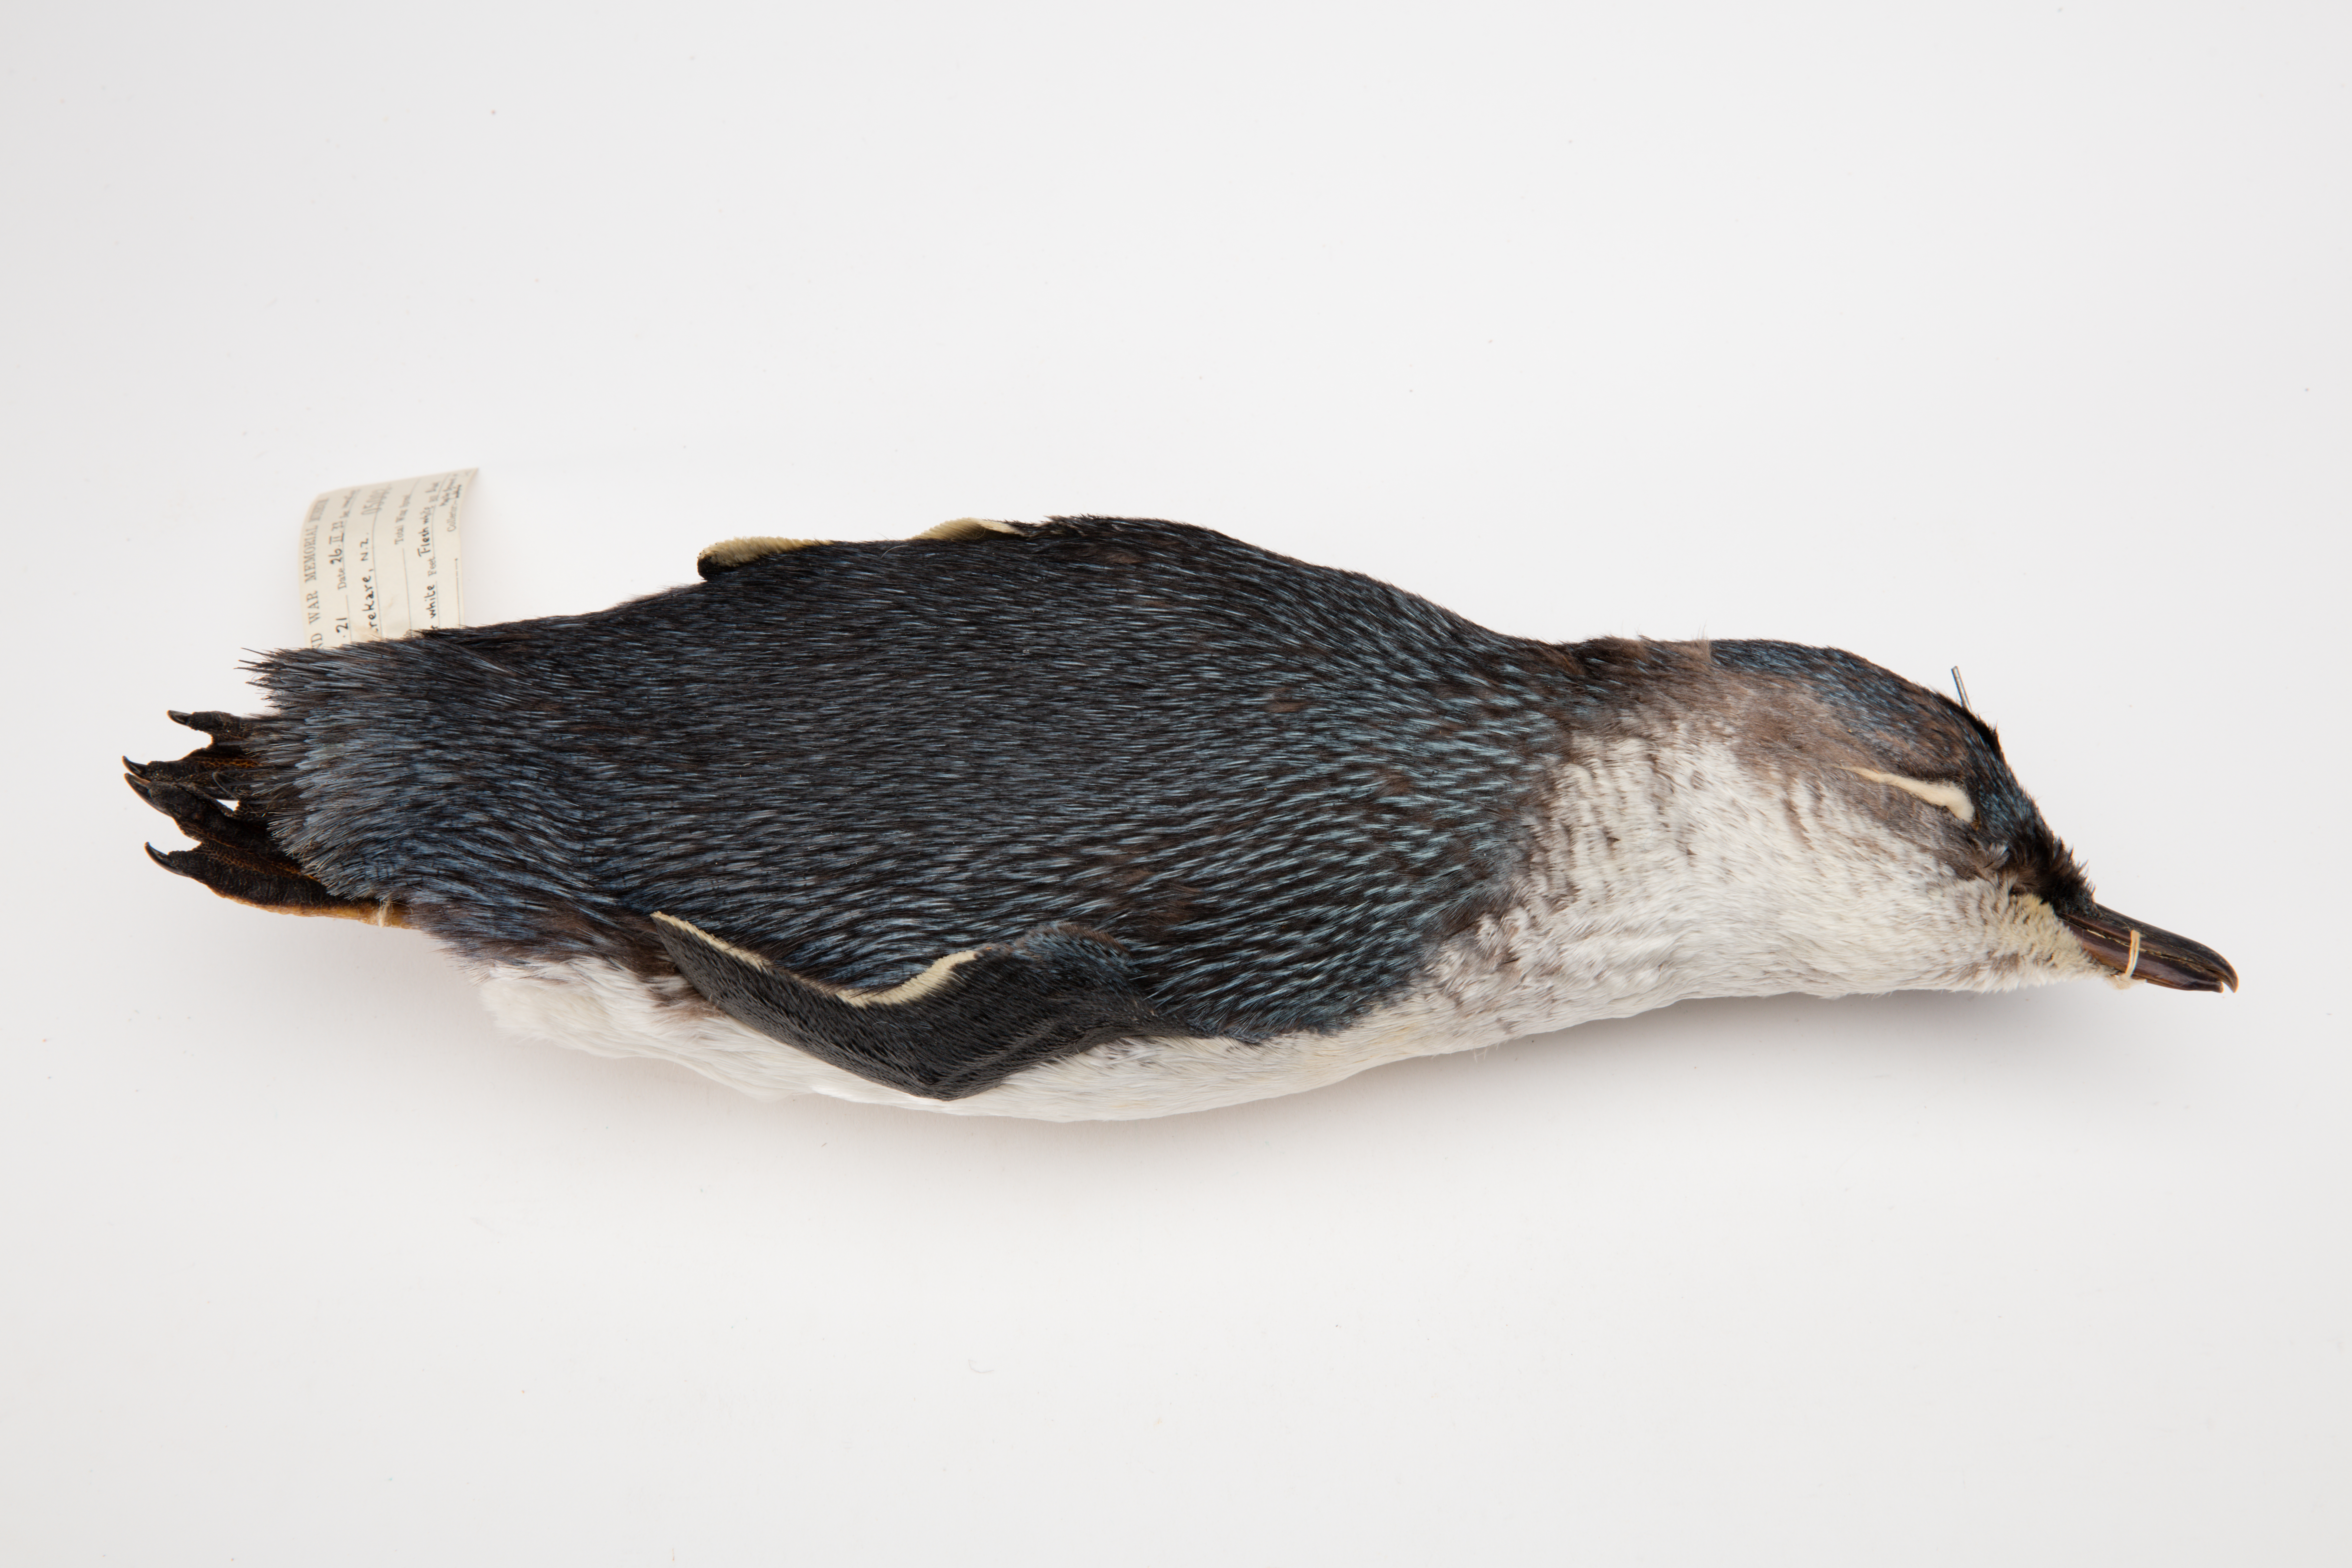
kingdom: Animalia
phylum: Chordata
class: Aves
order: Sphenisciformes
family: Spheniscidae
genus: Eudyptula
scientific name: Eudyptula minor
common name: Little penguin
